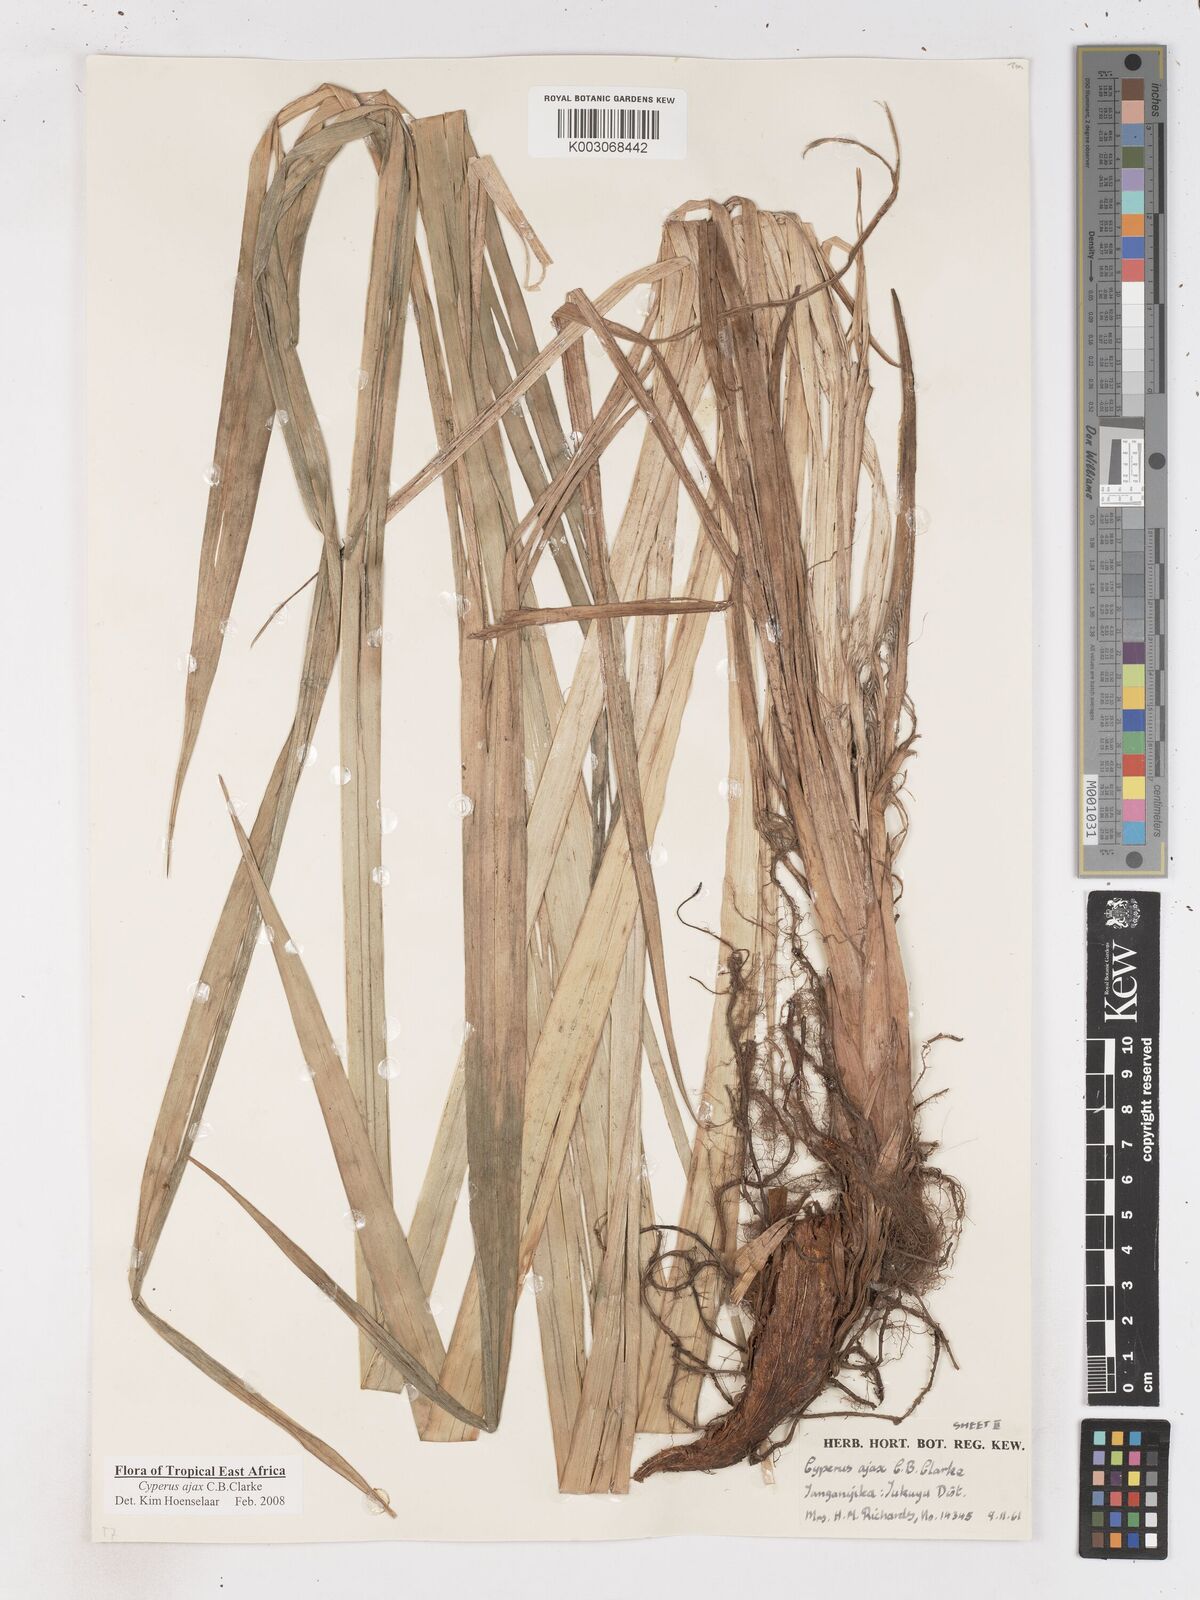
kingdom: Plantae
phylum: Tracheophyta
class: Liliopsida
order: Poales
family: Cyperaceae
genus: Cyperus
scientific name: Cyperus ajax
